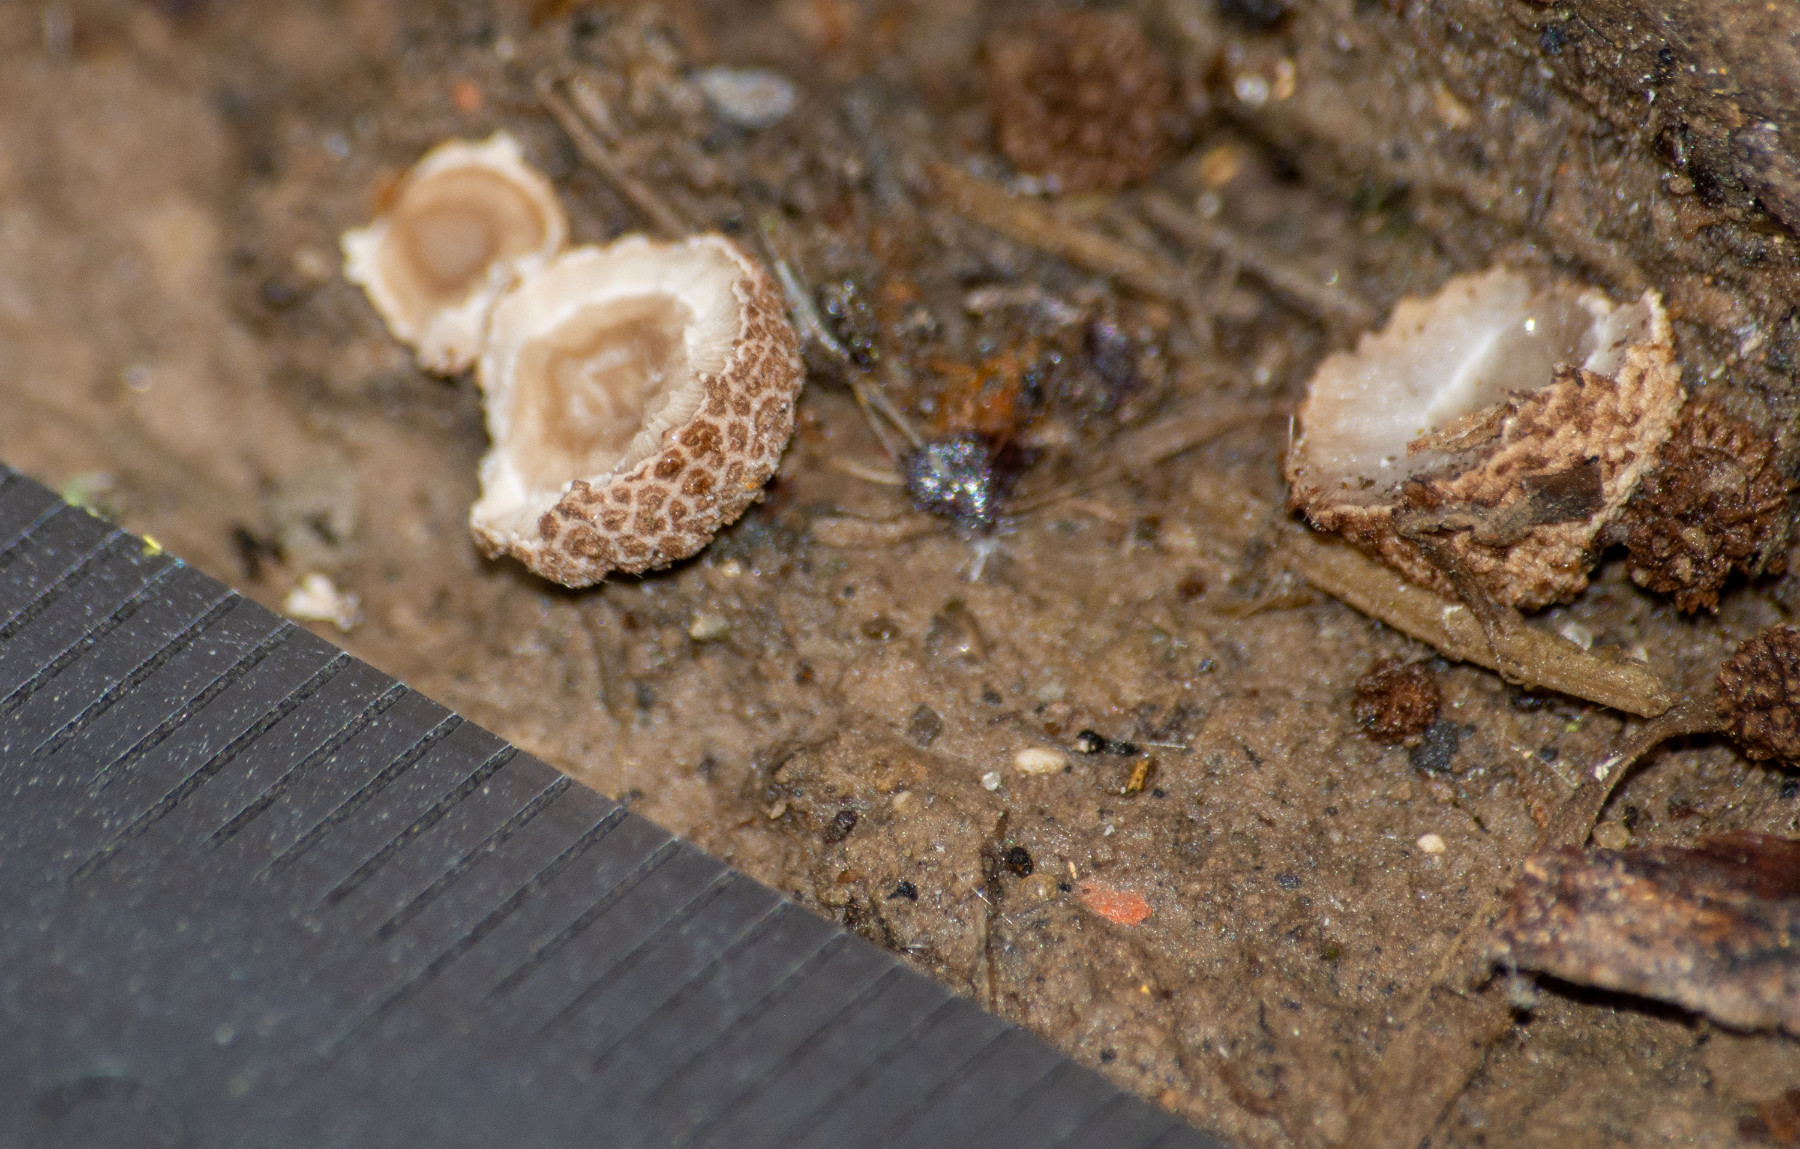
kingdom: Fungi
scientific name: Fungi
